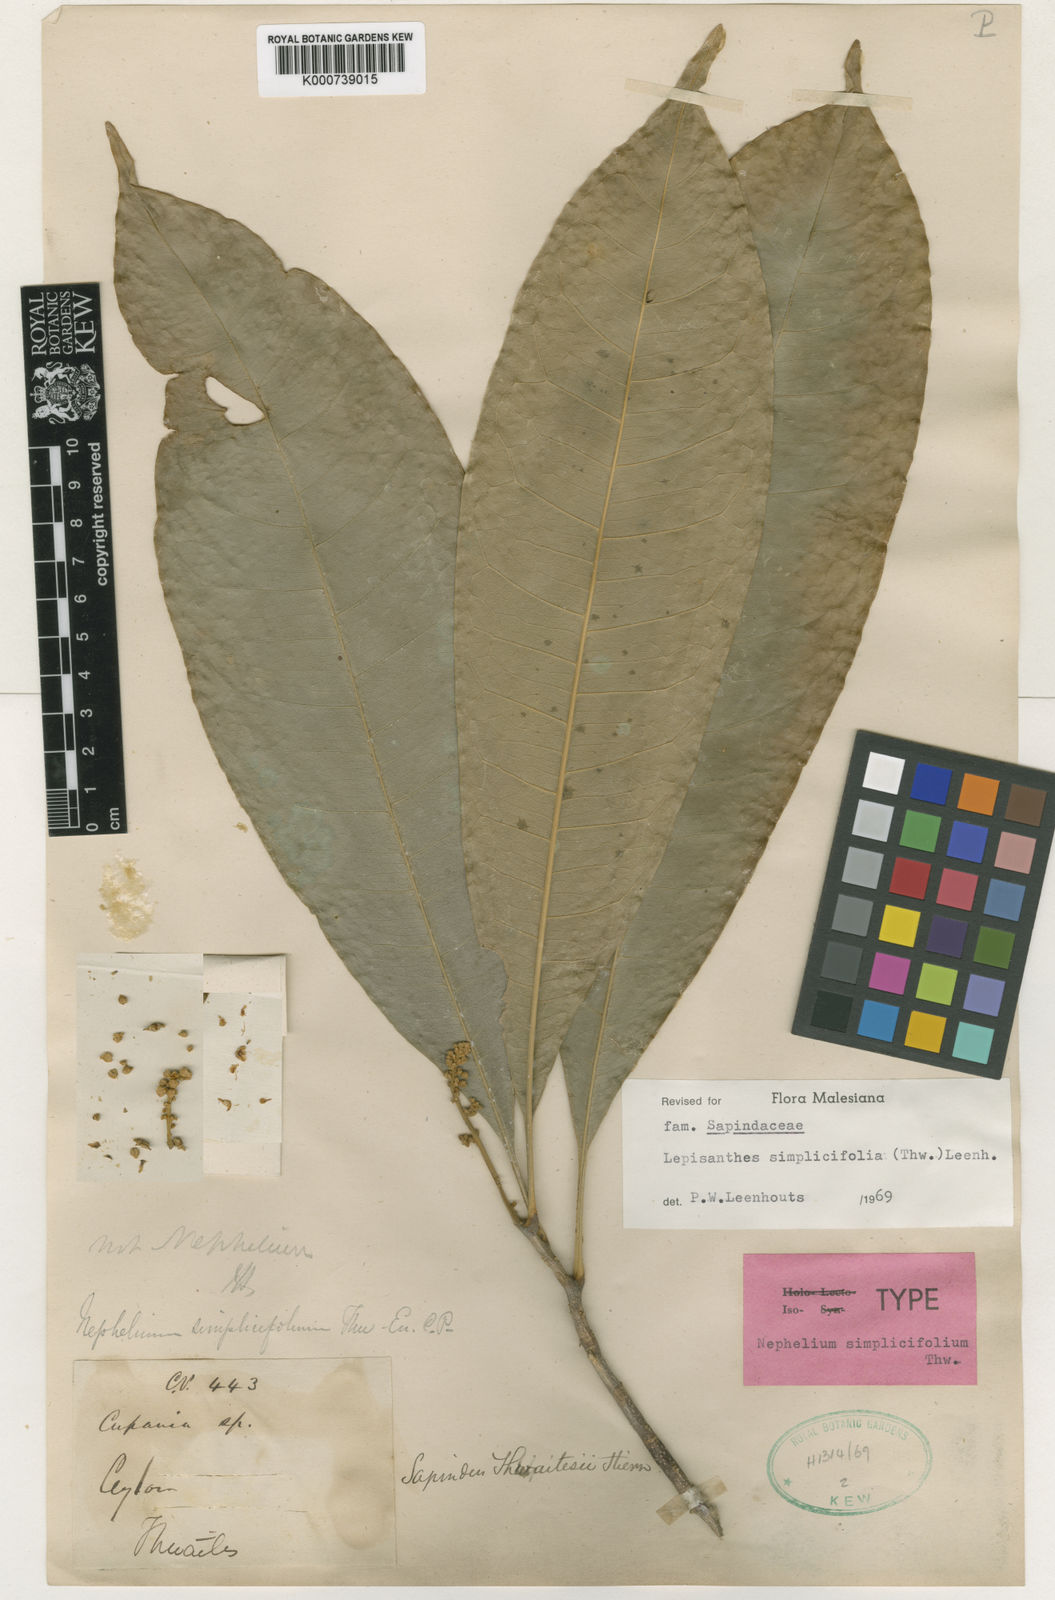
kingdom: Plantae
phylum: Tracheophyta
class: Magnoliopsida
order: Sapindales
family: Sapindaceae
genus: Lepisanthes
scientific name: Lepisanthes simplicifolia
